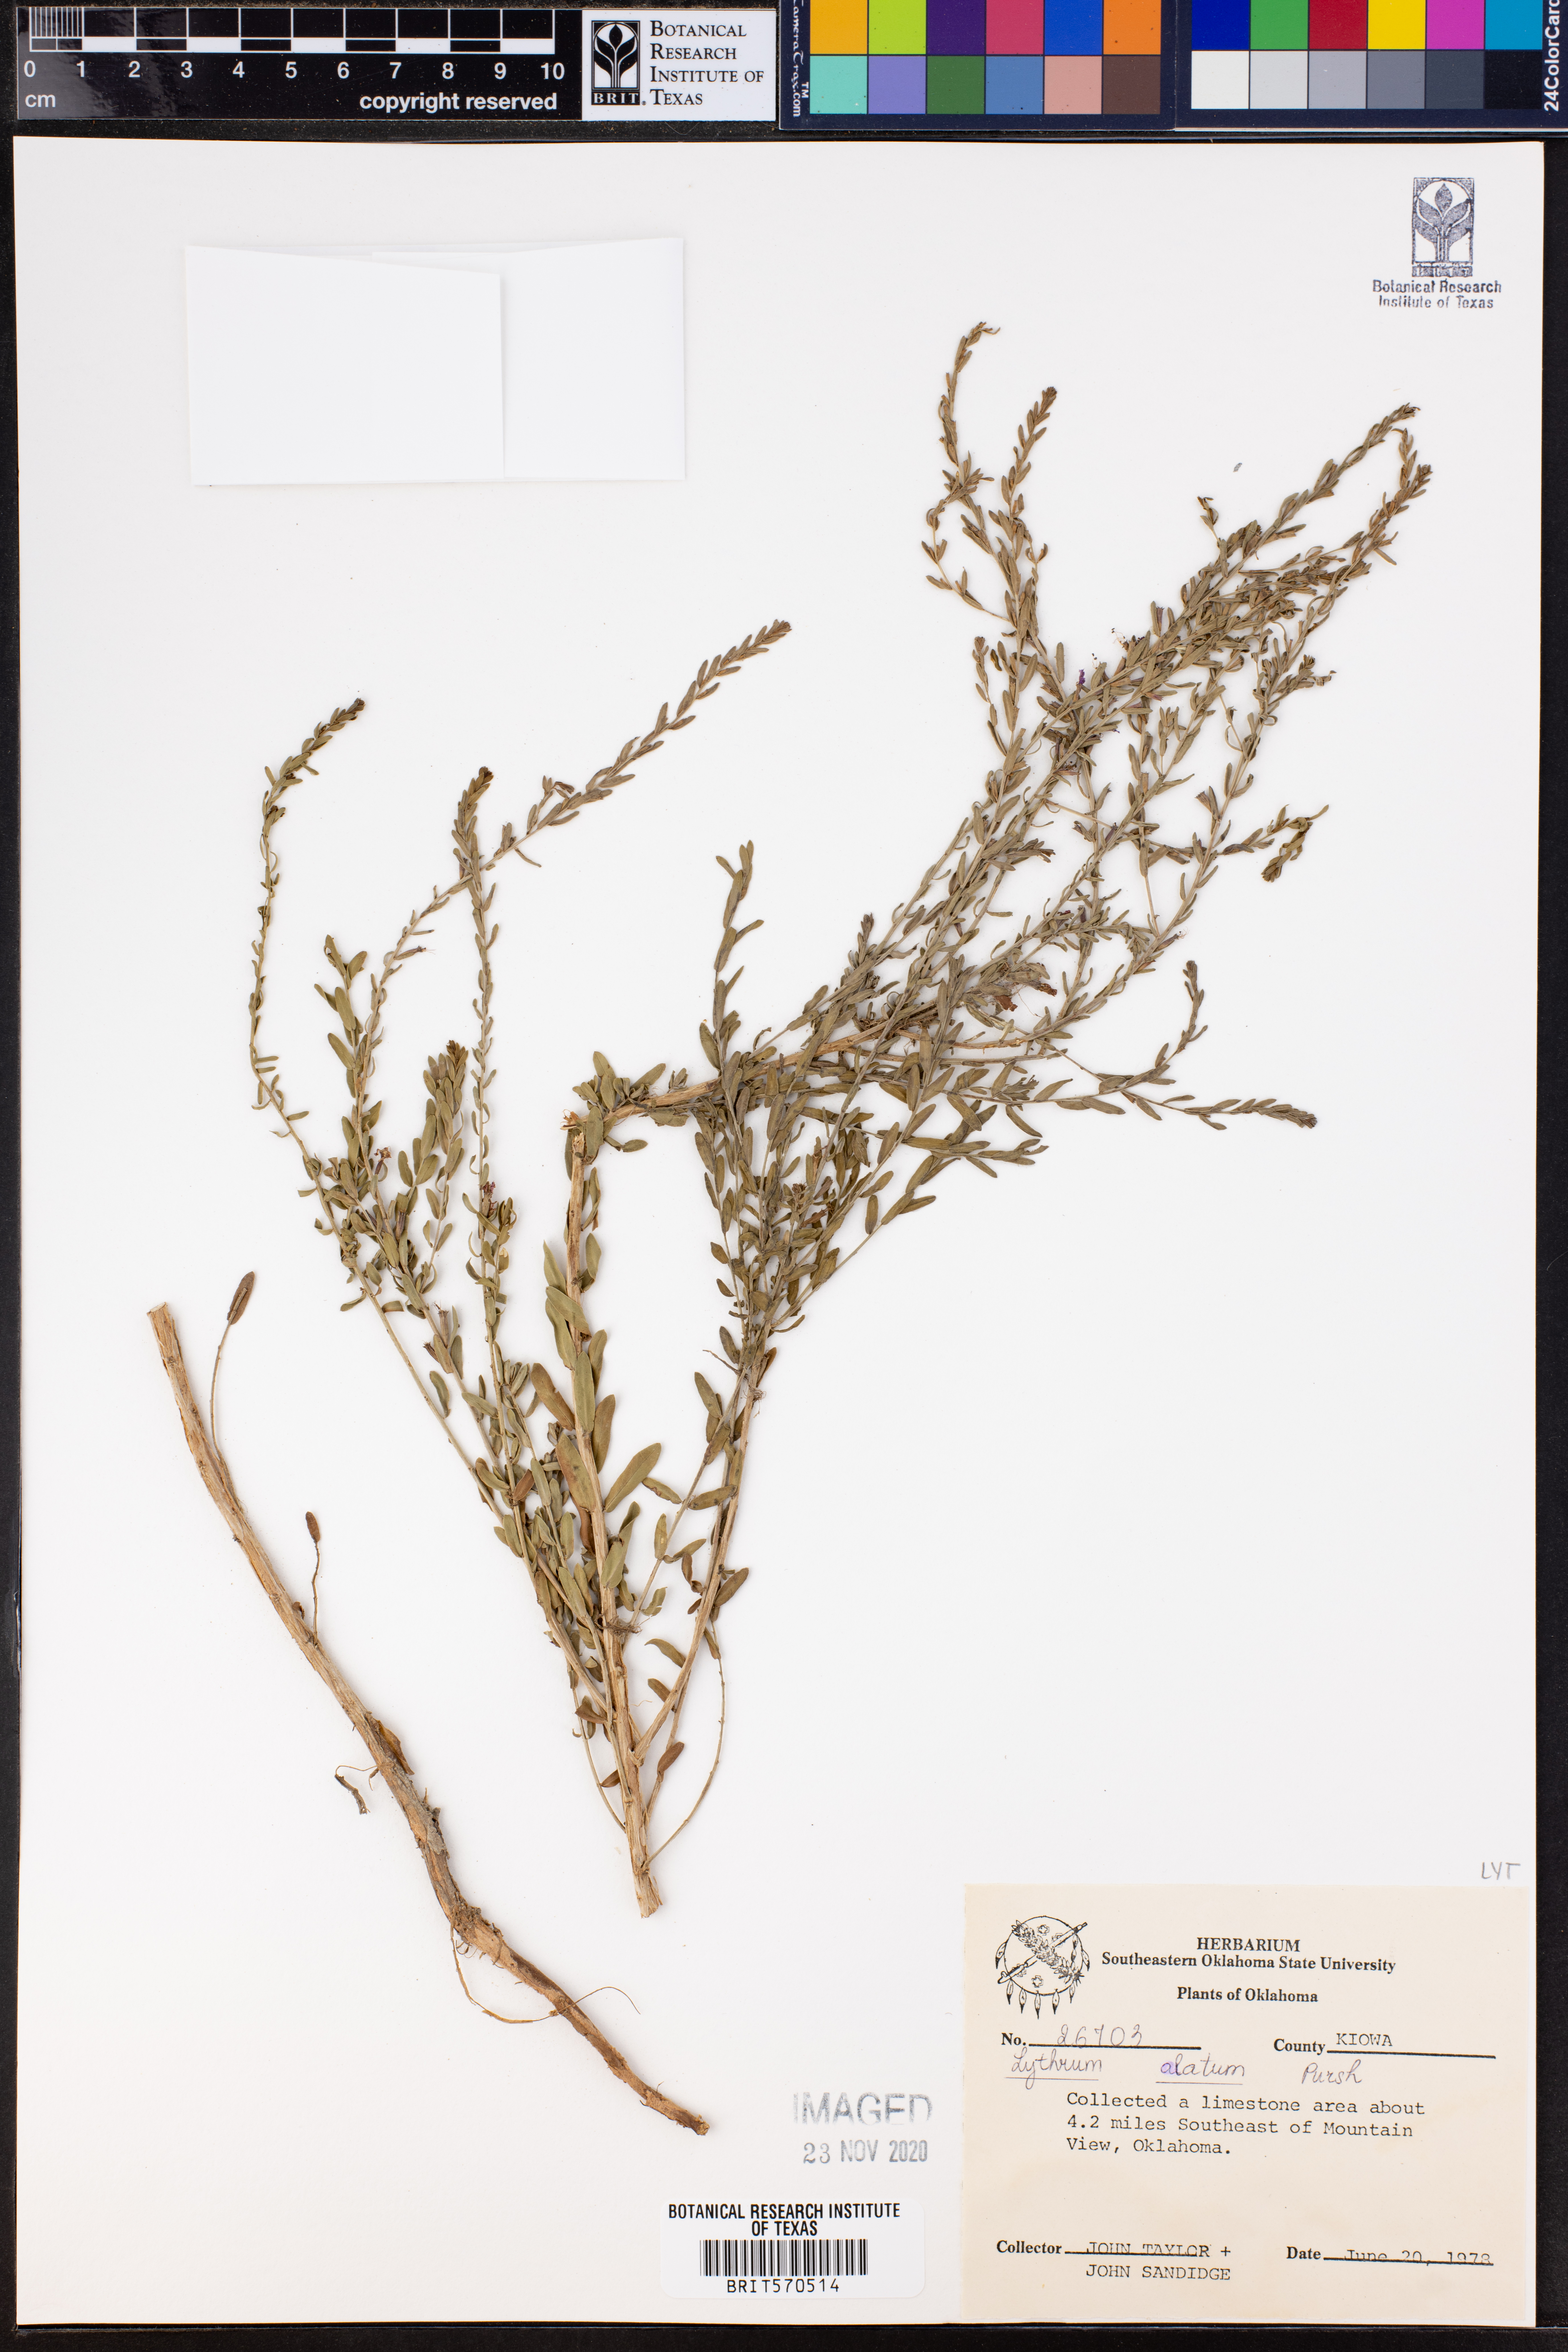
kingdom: Plantae
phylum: Tracheophyta
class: Magnoliopsida
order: Myrtales
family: Lythraceae
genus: Lythrum
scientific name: Lythrum alatum
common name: Winged loosestrife
